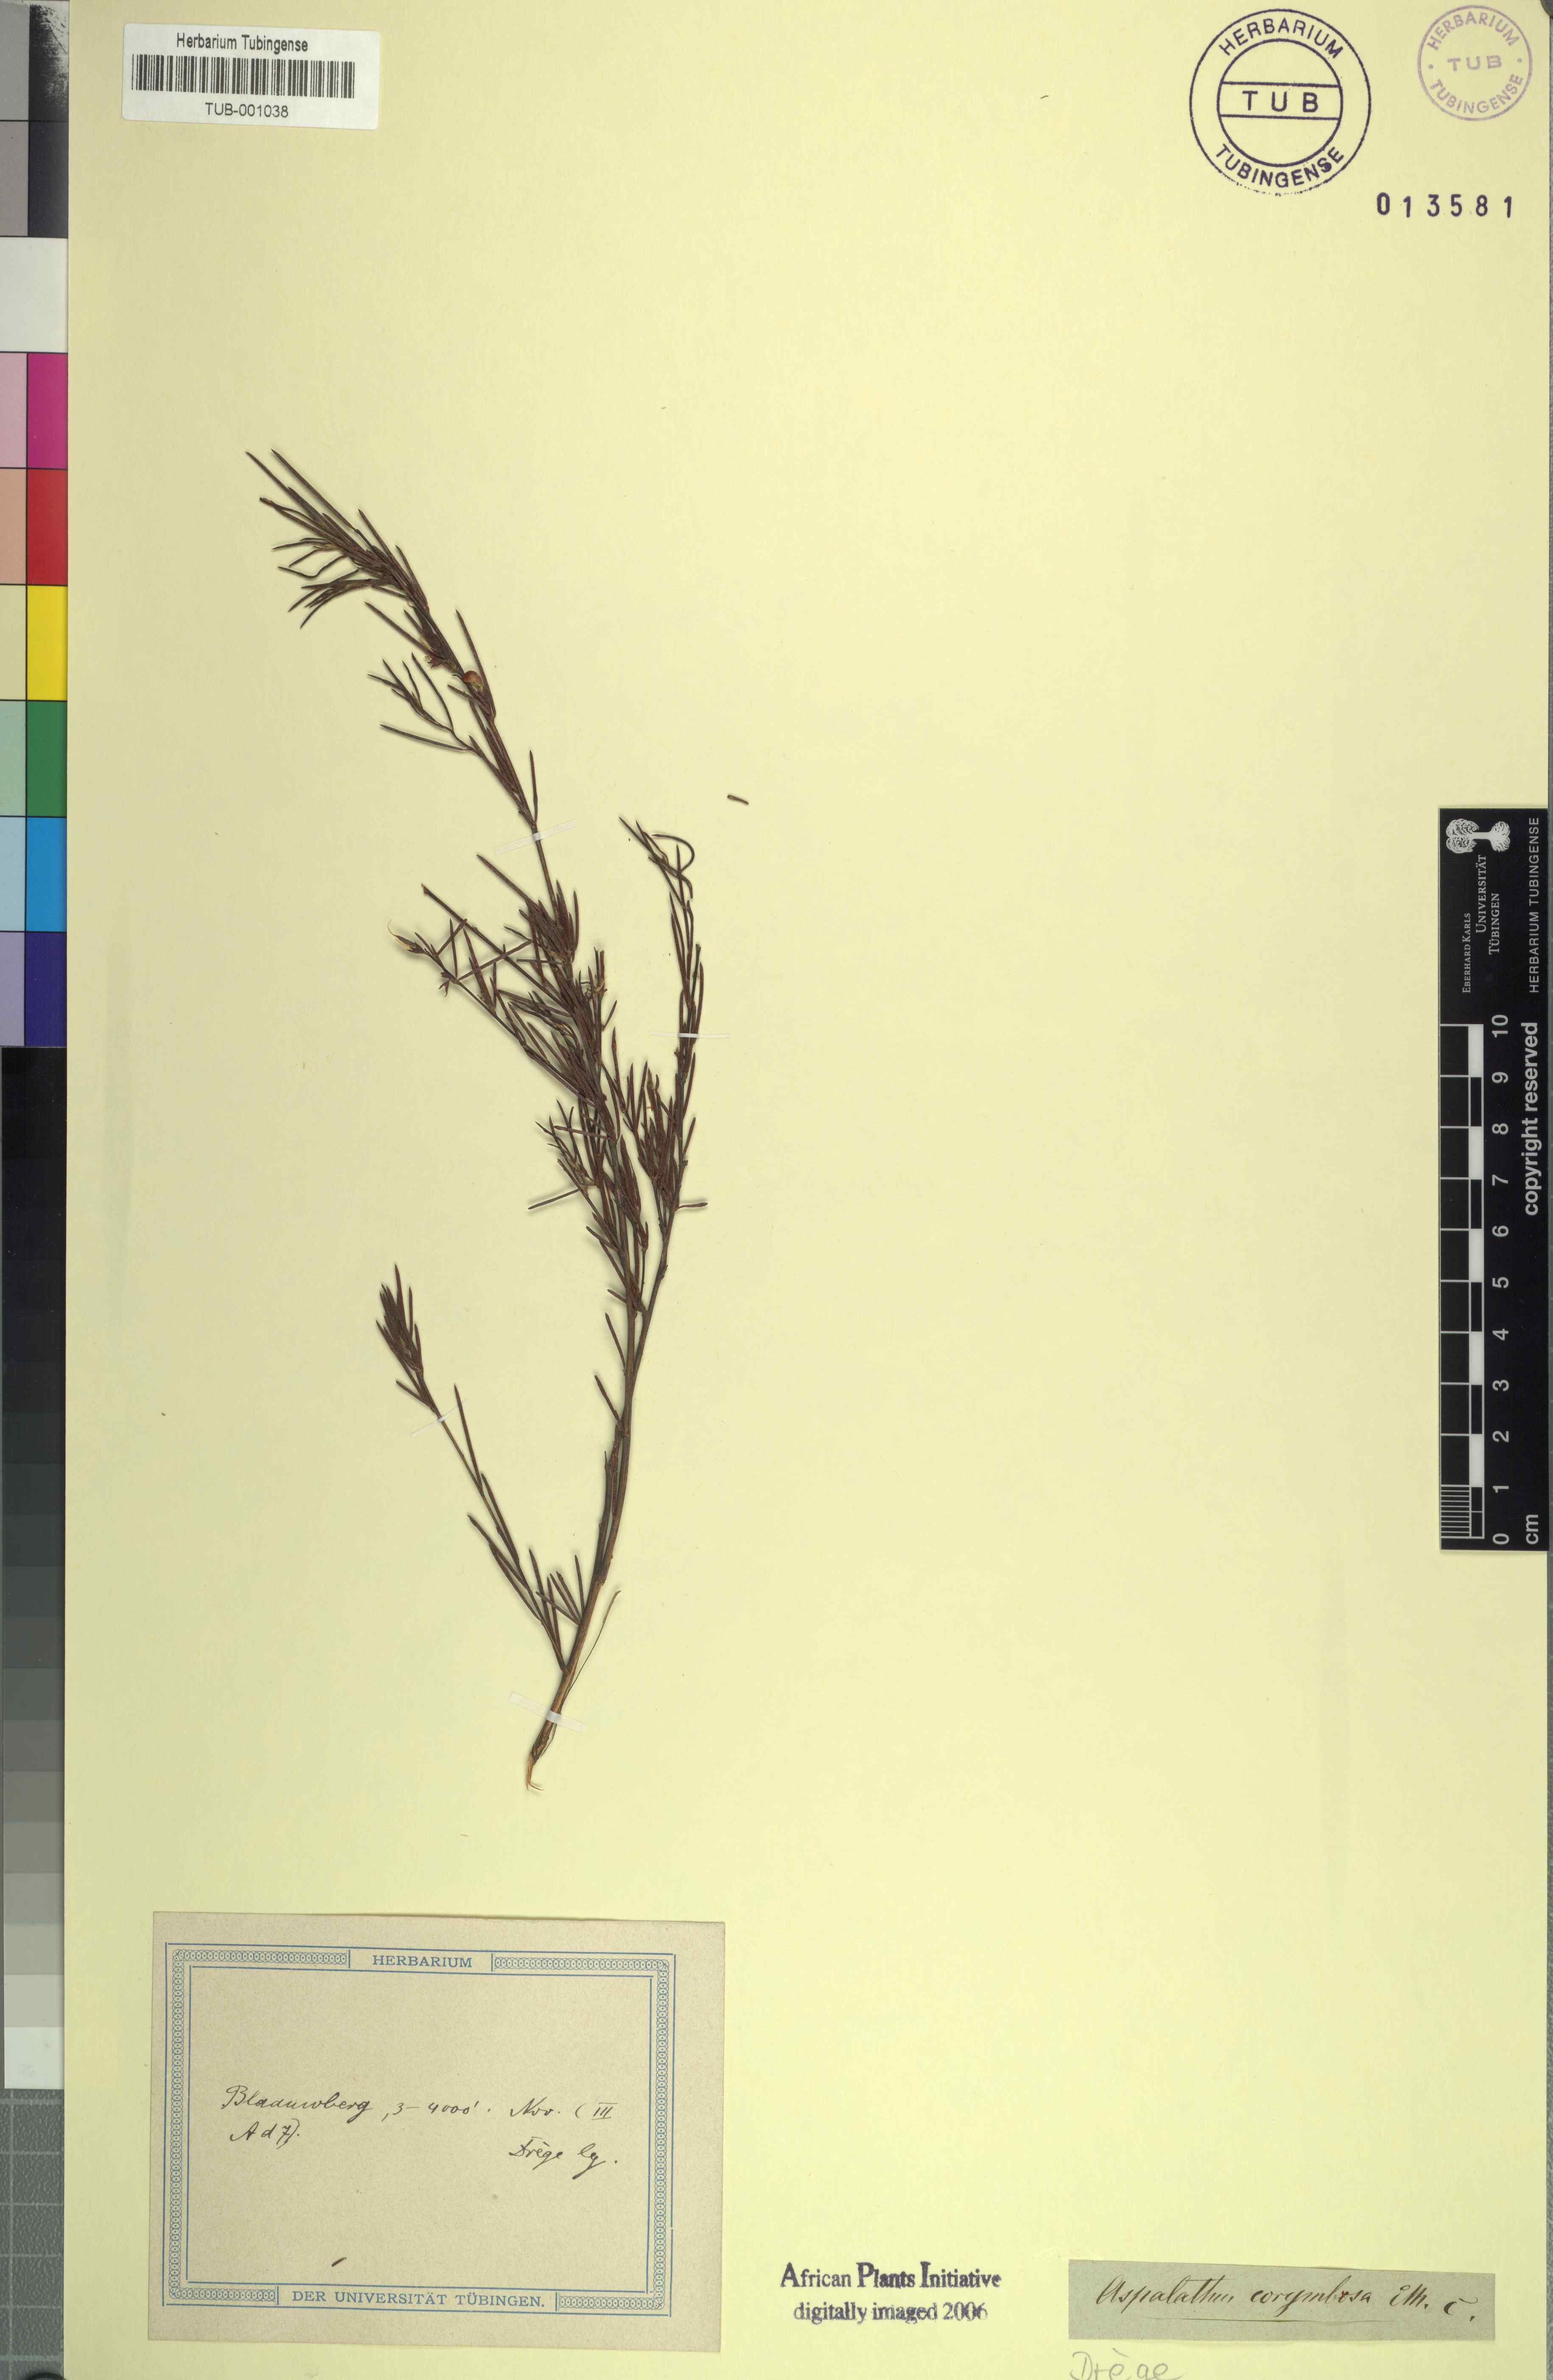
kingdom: Plantae
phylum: Tracheophyta
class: Magnoliopsida
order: Fabales
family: Fabaceae
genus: Aspalathus
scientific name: Aspalathus linearis
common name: Rooibos-tea
